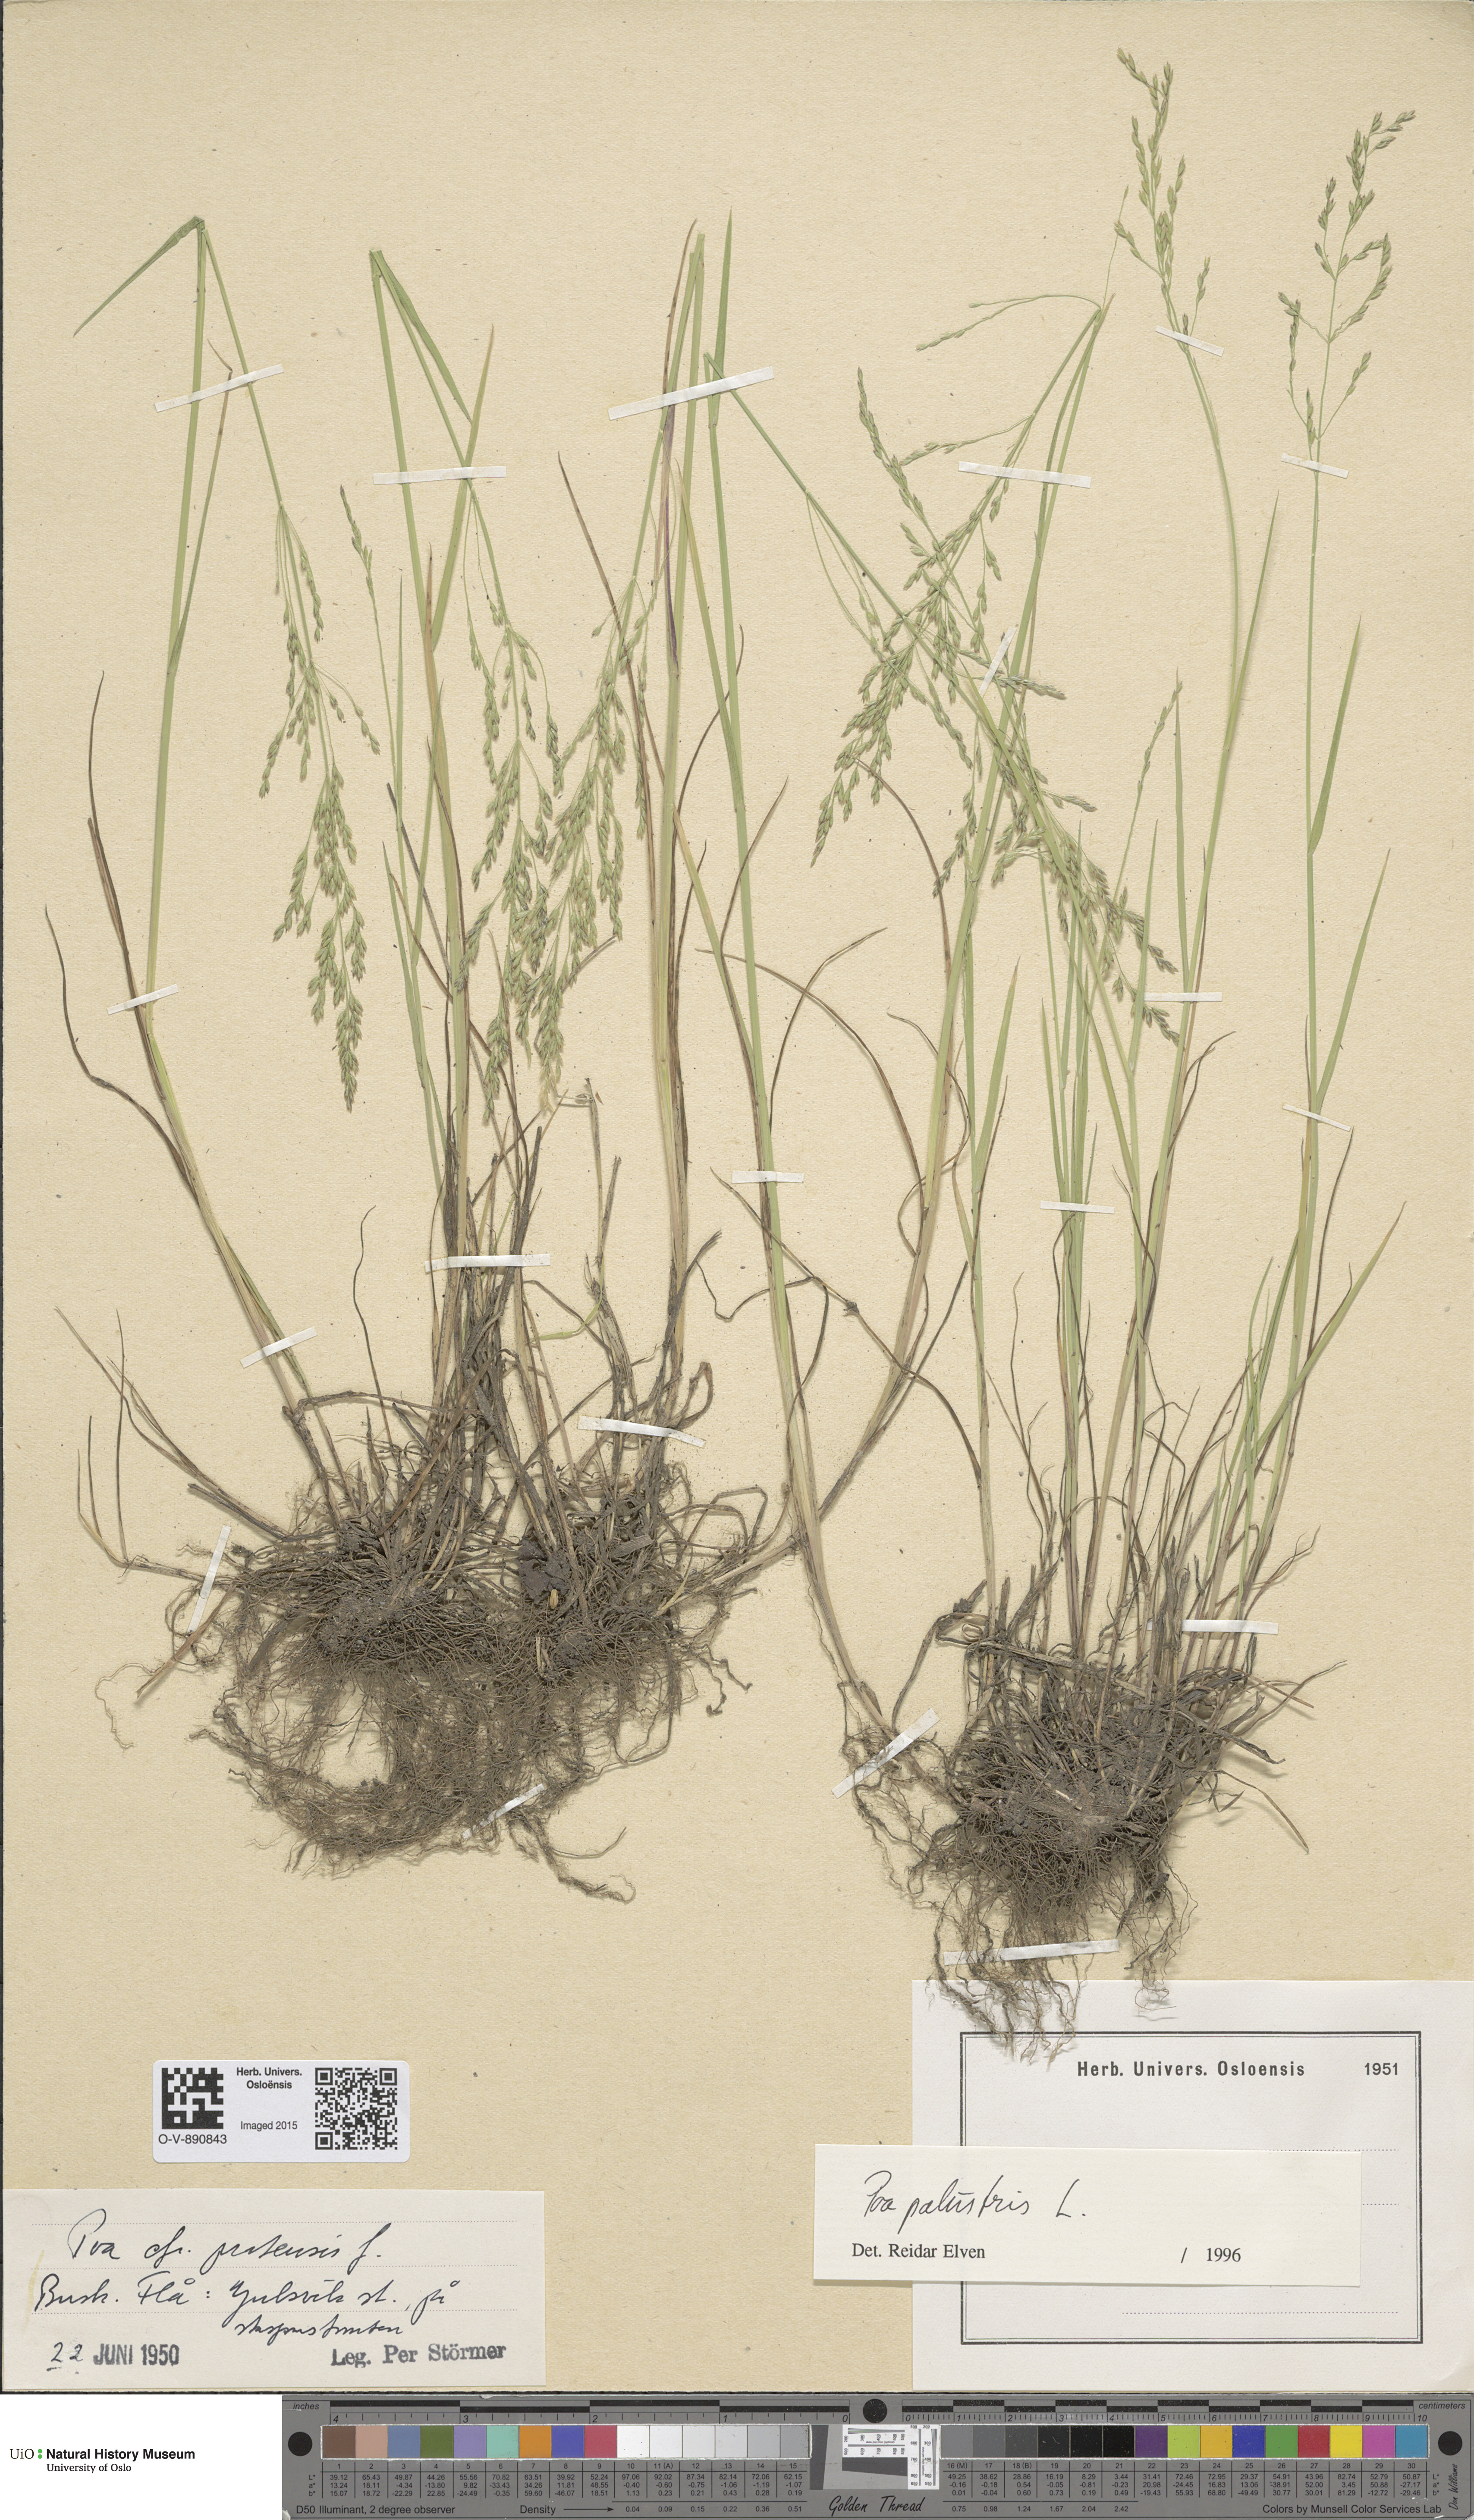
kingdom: Plantae
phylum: Tracheophyta
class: Liliopsida
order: Poales
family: Poaceae
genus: Poa
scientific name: Poa palustris
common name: Swamp meadow-grass
